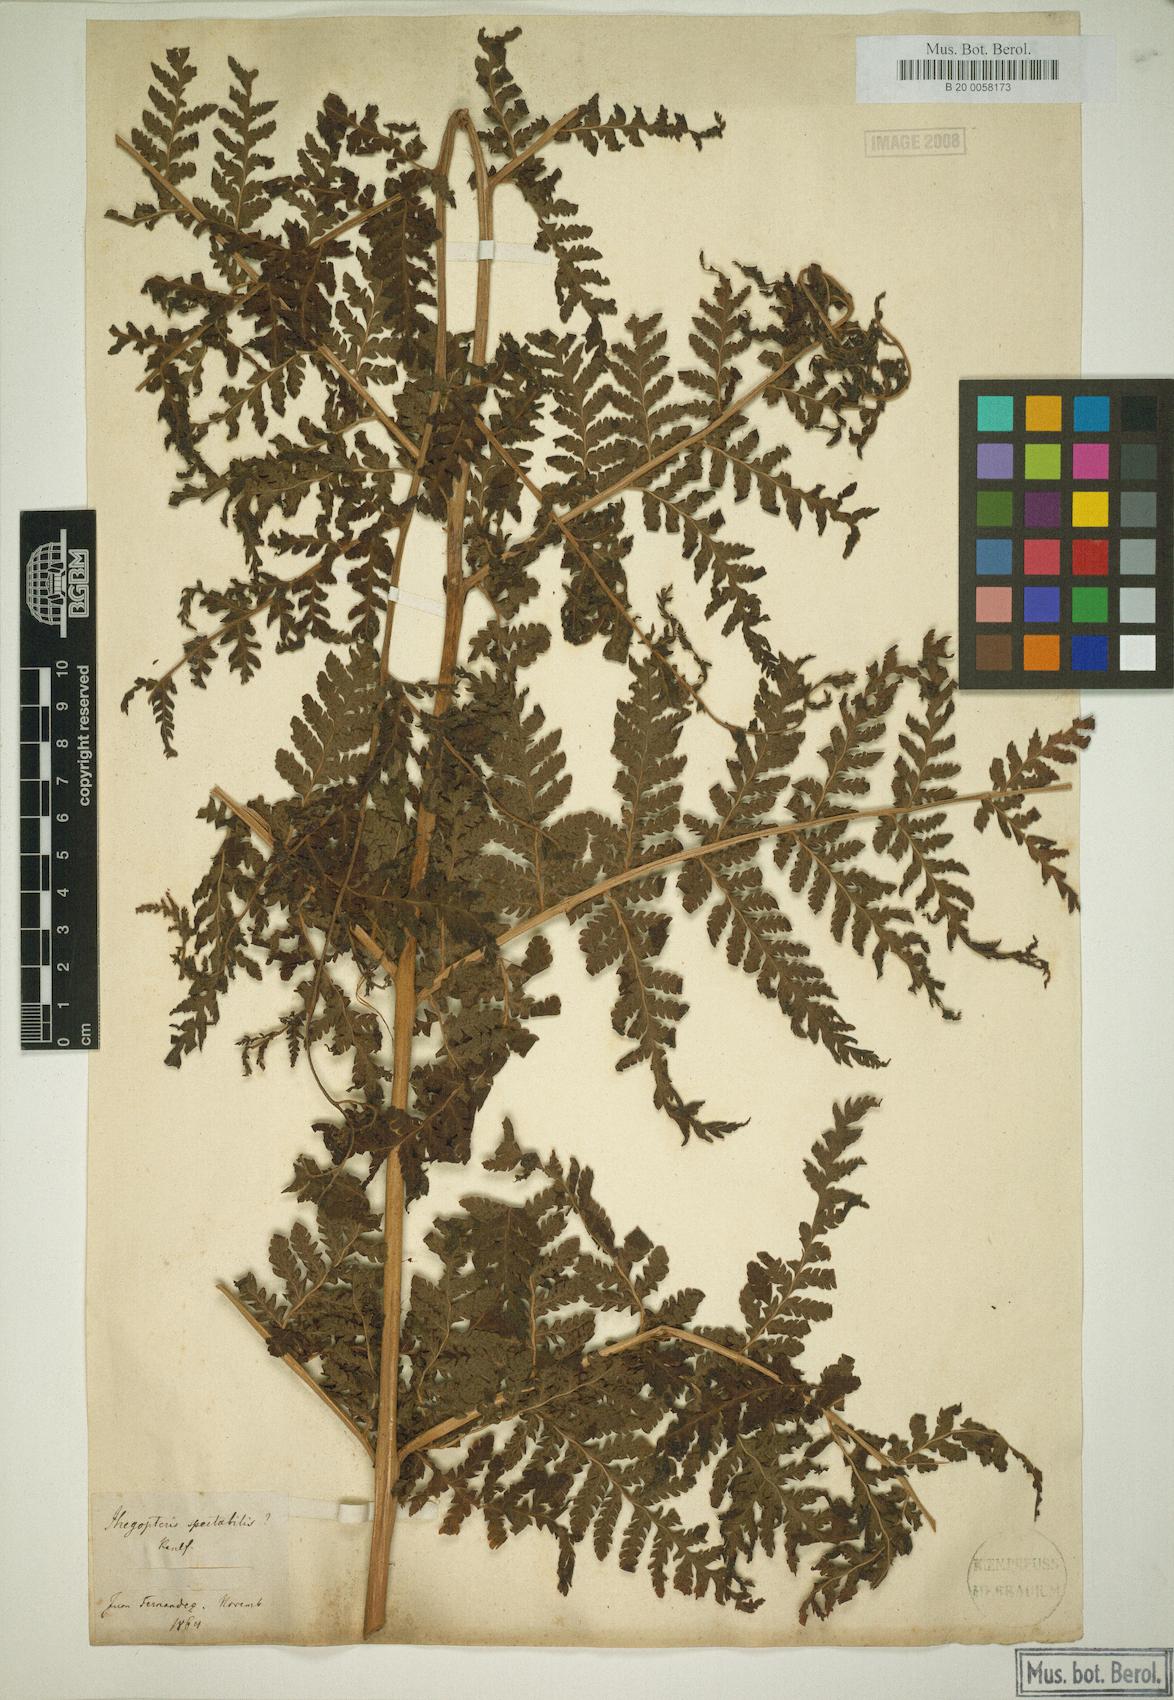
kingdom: Plantae
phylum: Tracheophyta
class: Polypodiopsida
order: Polypodiales
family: Dryopteridaceae
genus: Megalastrum
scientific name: Megalastrum inaequalifolium
